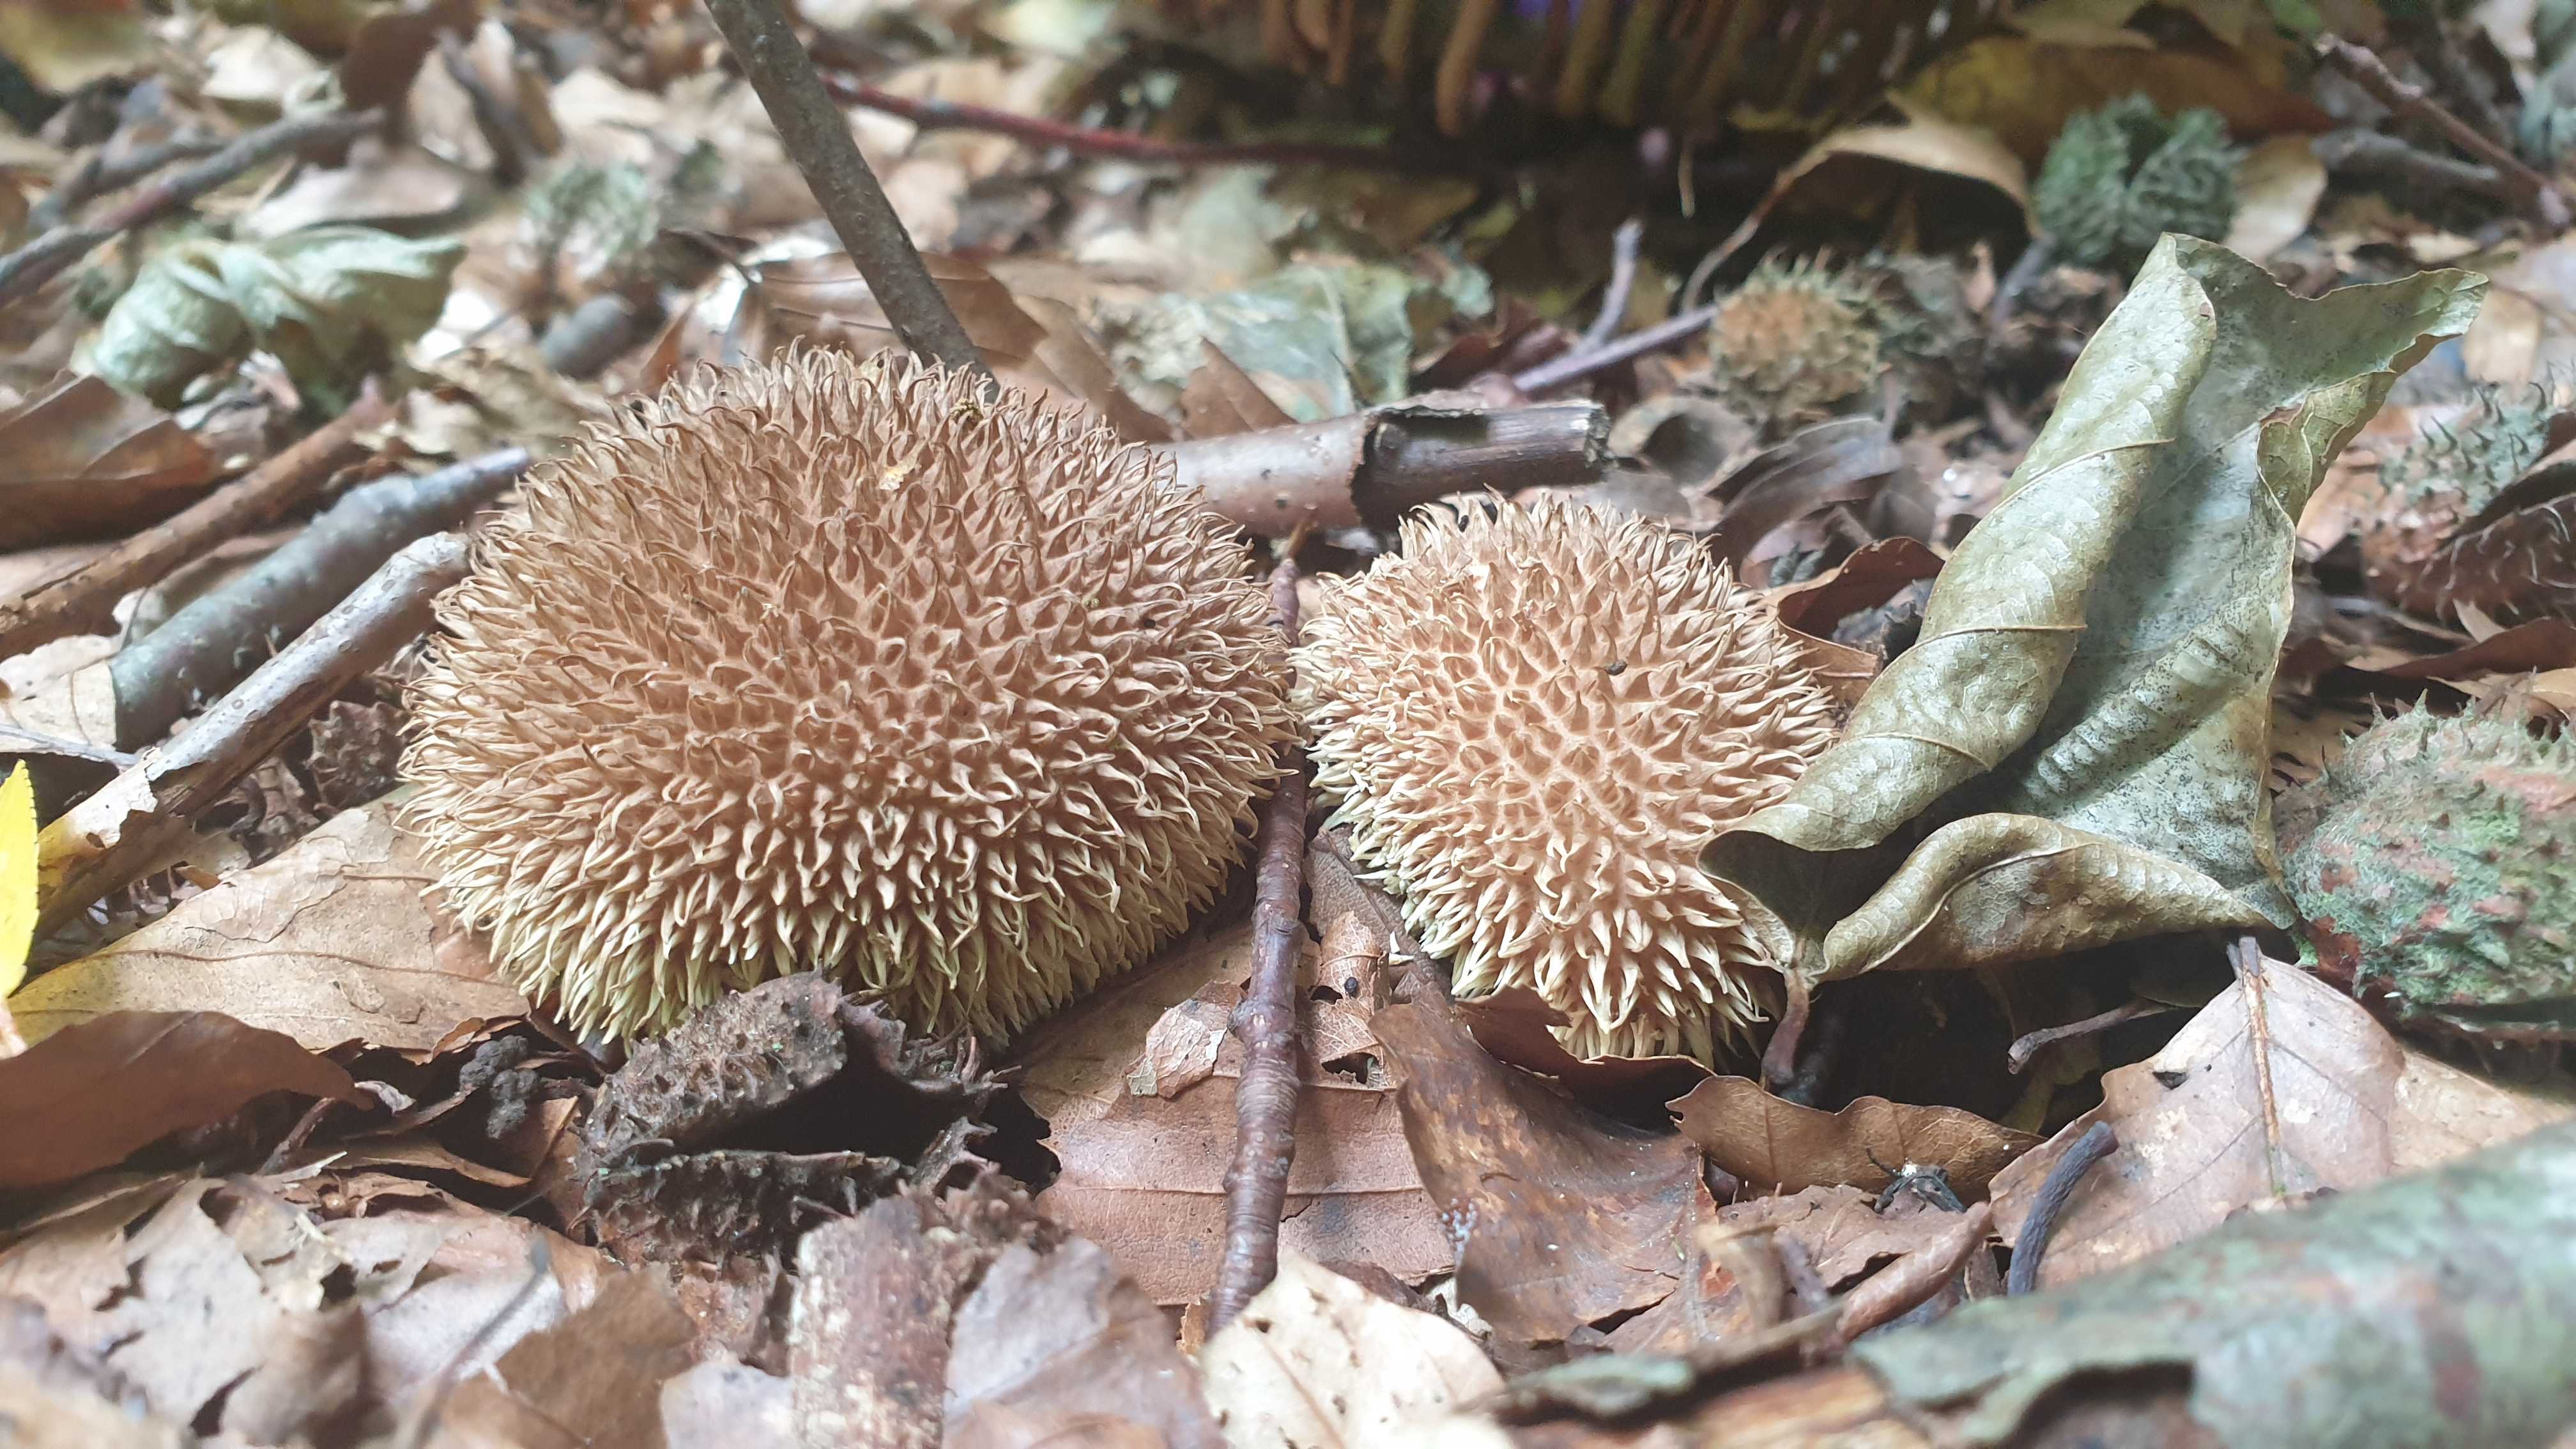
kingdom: Fungi
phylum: Basidiomycota
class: Agaricomycetes
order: Agaricales
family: Lycoperdaceae
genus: Lycoperdon
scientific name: Lycoperdon echinatum
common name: pindsvine-støvbold
